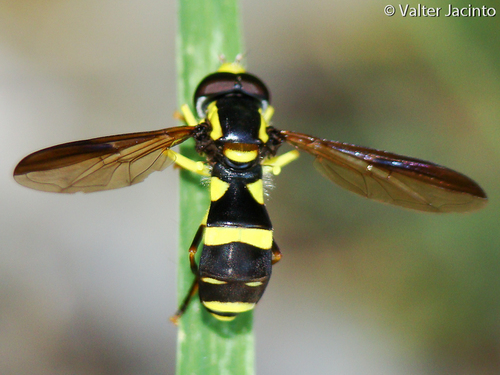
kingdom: Animalia
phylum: Arthropoda
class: Insecta
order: Diptera
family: Syrphidae
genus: Philhelius
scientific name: Philhelius marginalis
